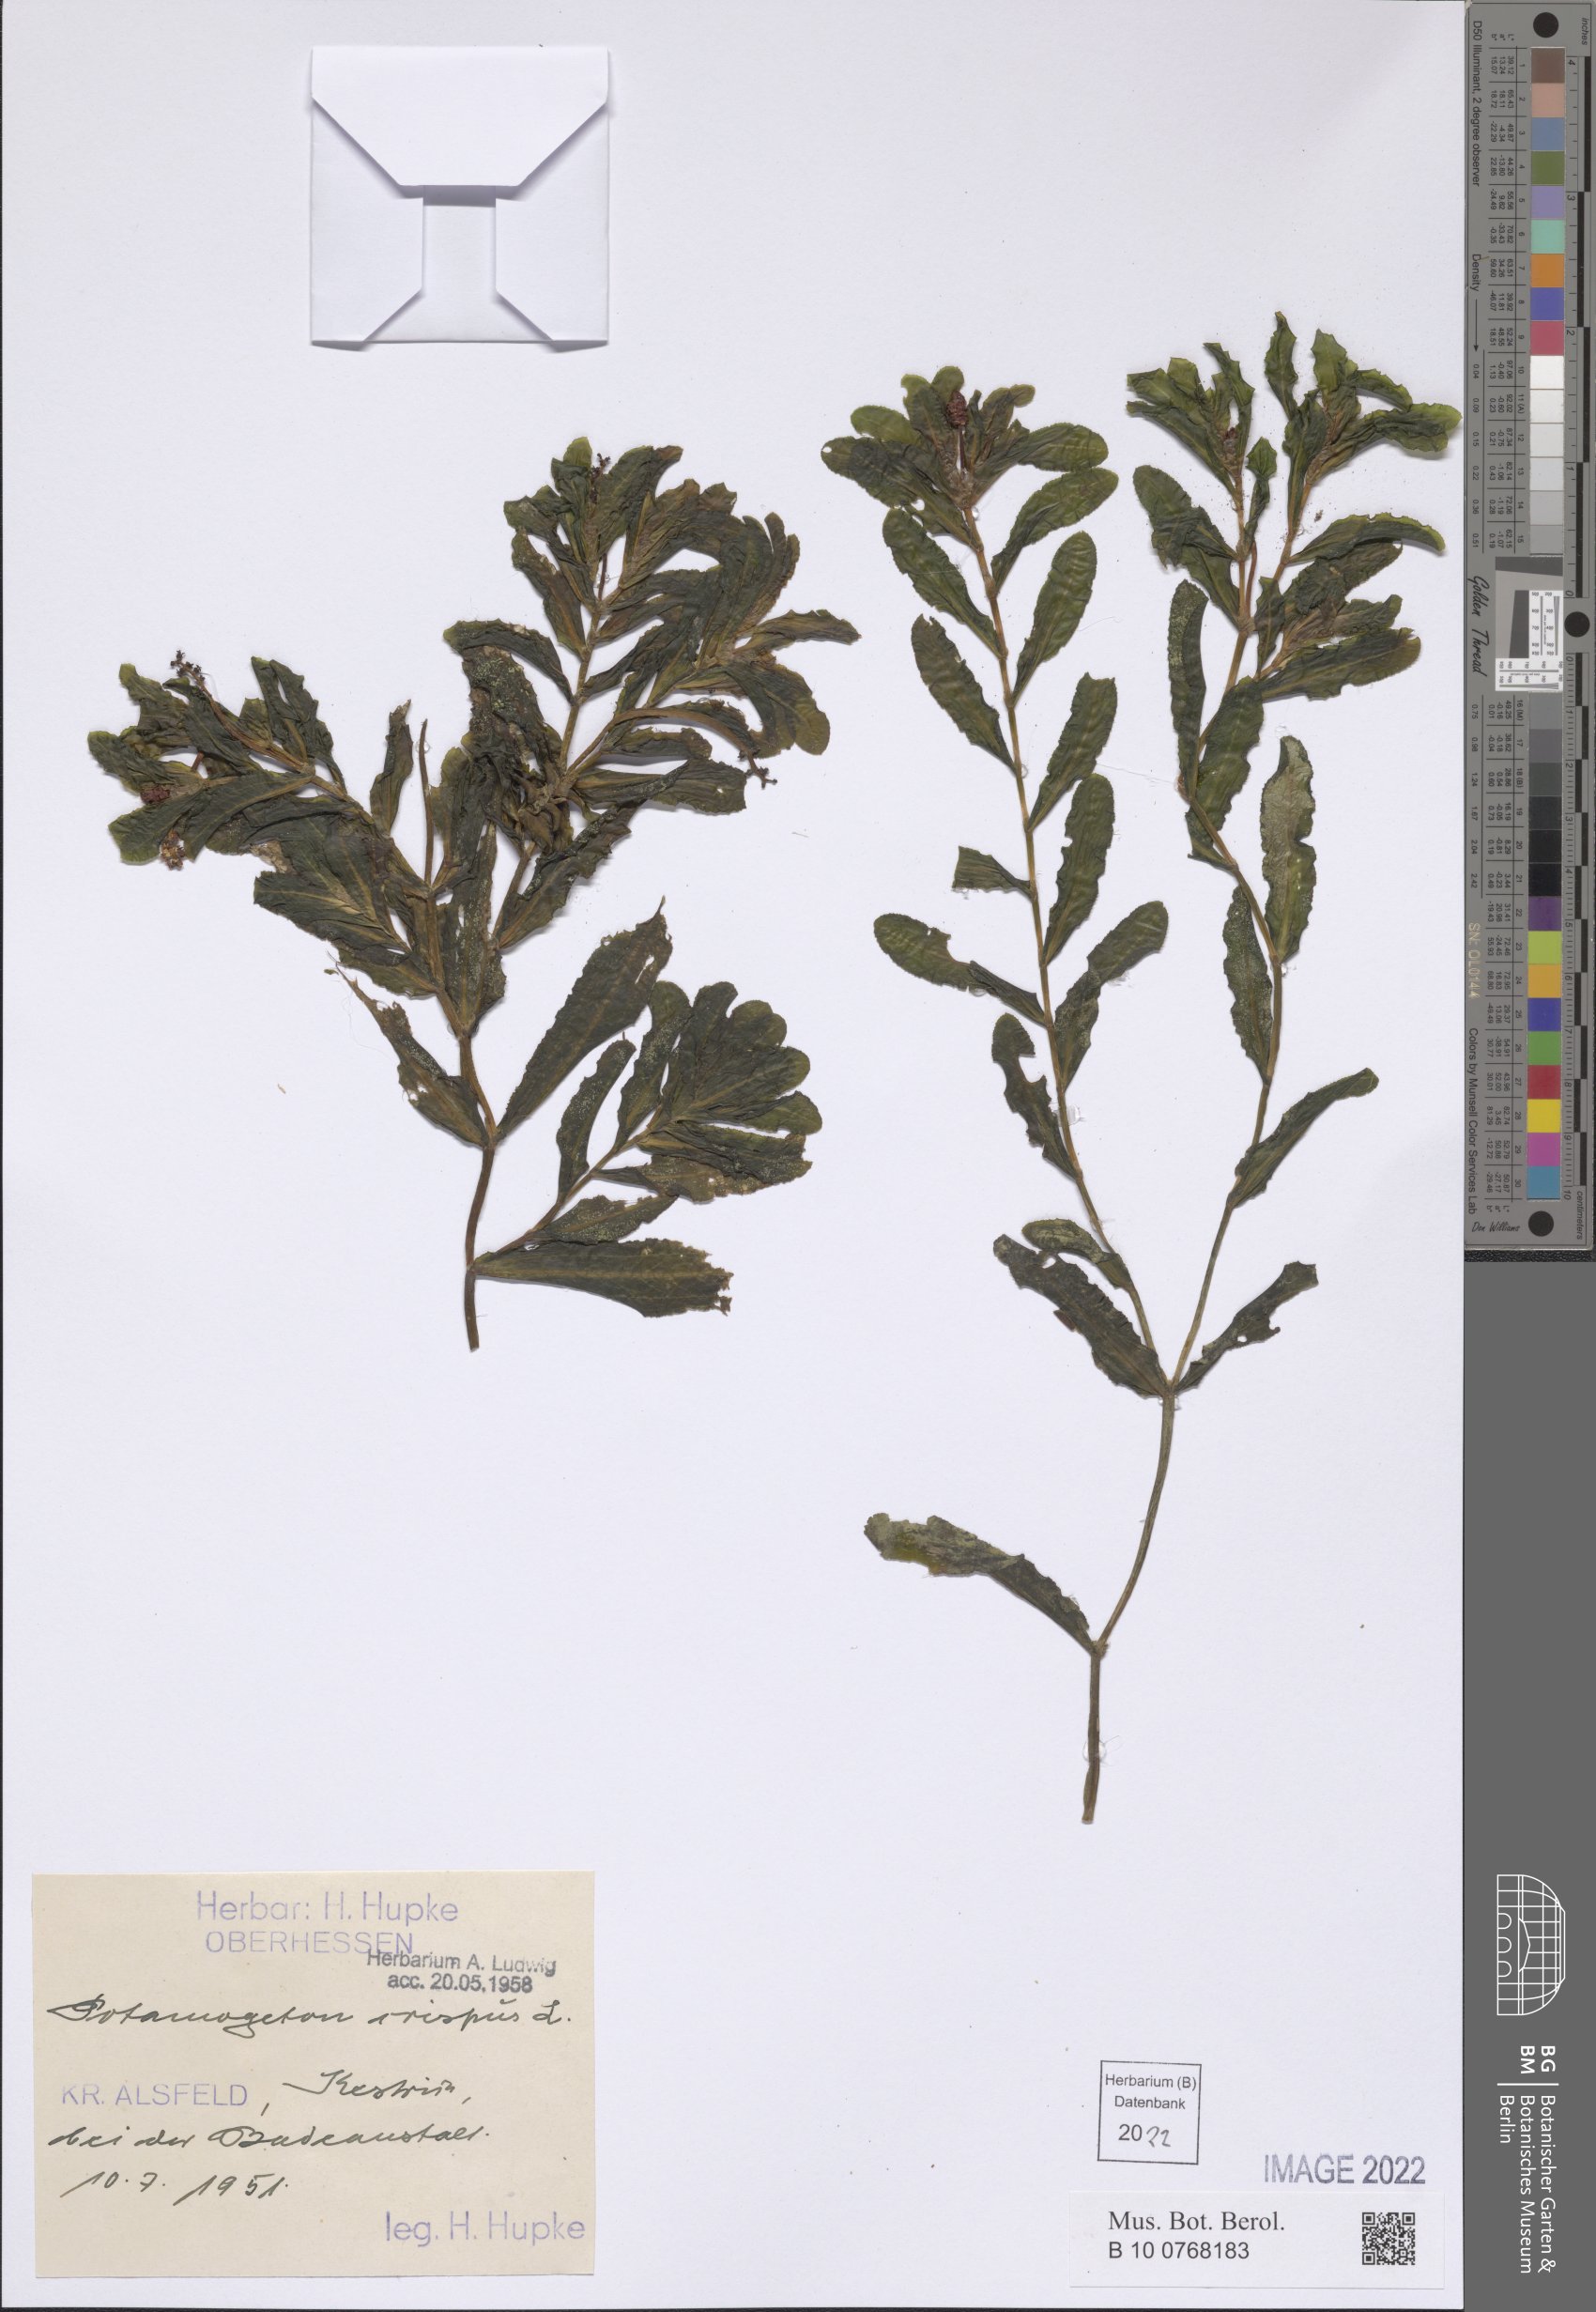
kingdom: Plantae
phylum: Tracheophyta
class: Liliopsida
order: Alismatales
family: Potamogetonaceae
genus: Potamogeton
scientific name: Potamogeton crispus
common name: Curled pondweed
